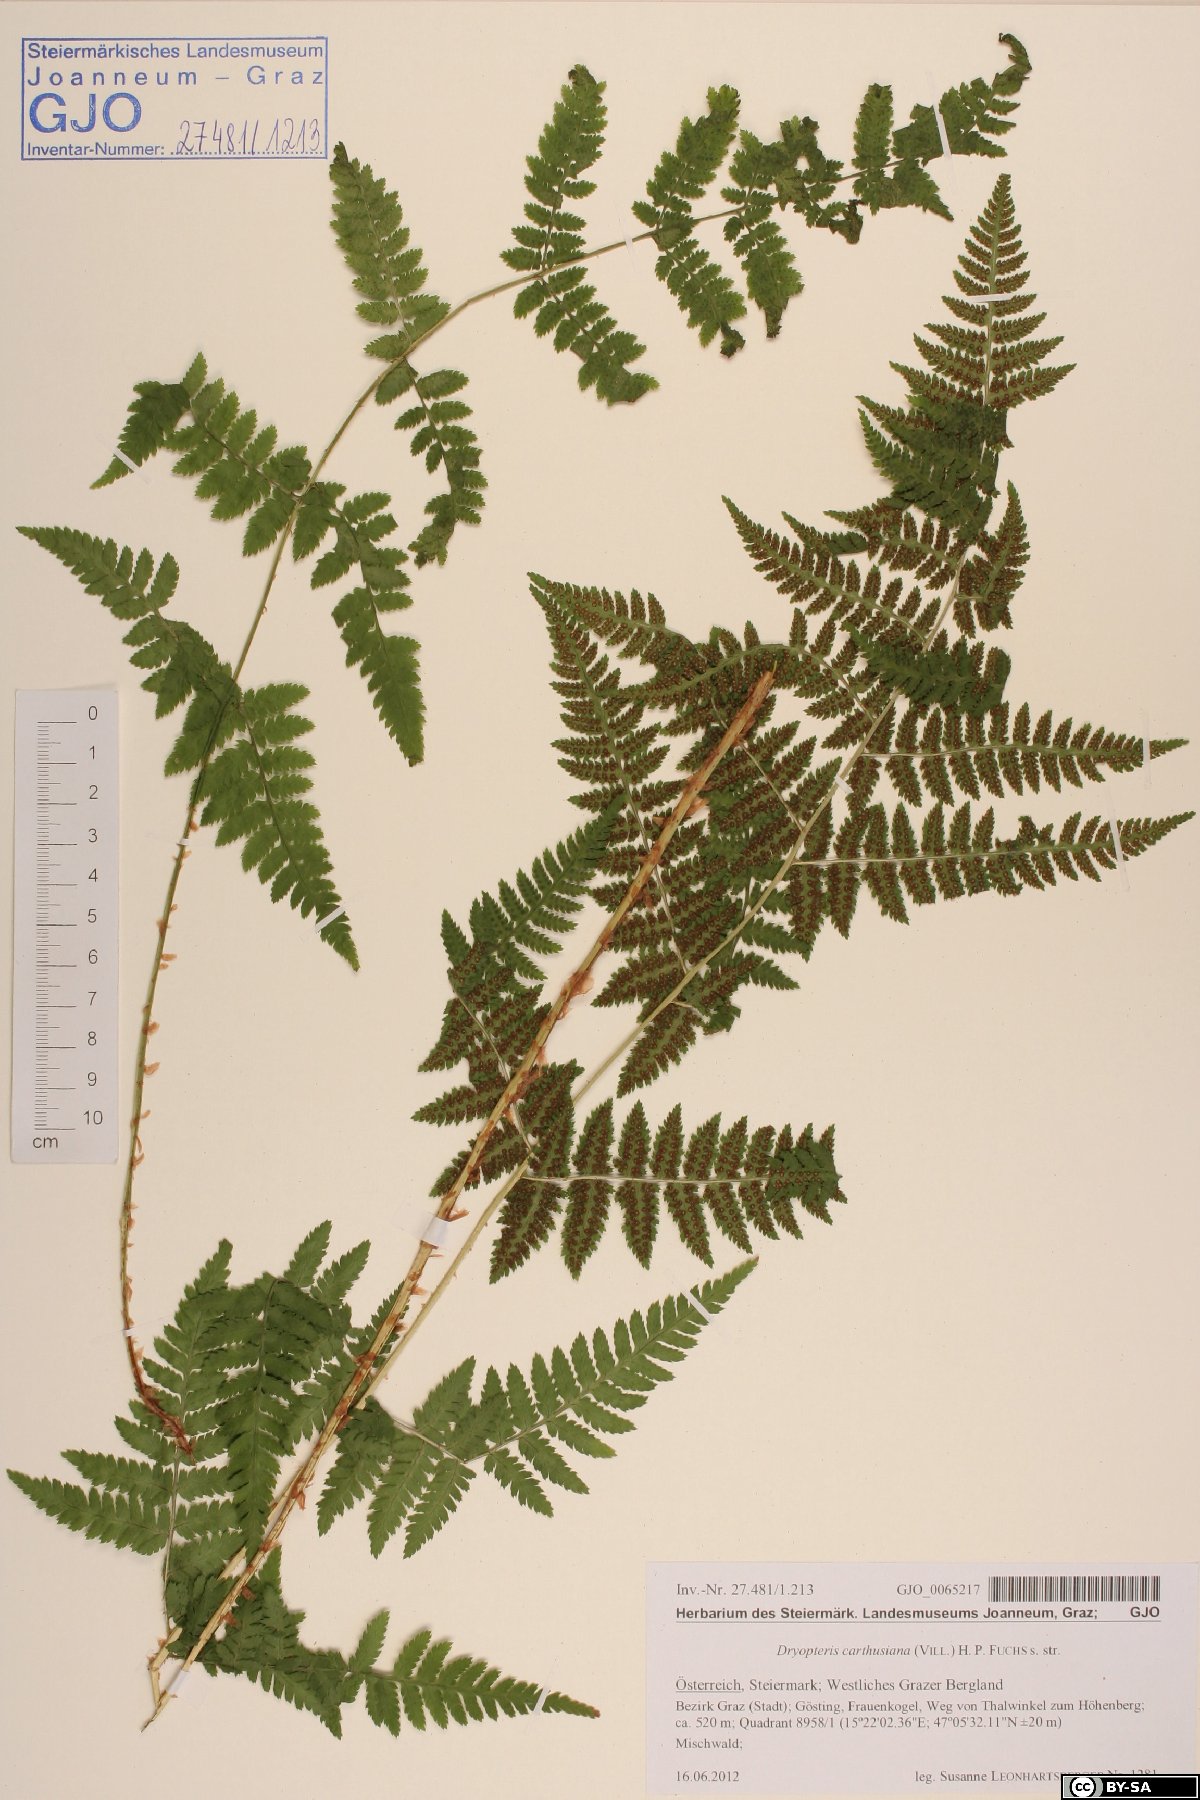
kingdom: Plantae
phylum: Tracheophyta
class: Polypodiopsida
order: Polypodiales
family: Dryopteridaceae
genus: Dryopteris
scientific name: Dryopteris carthusiana
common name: Narrow buckler-fern
